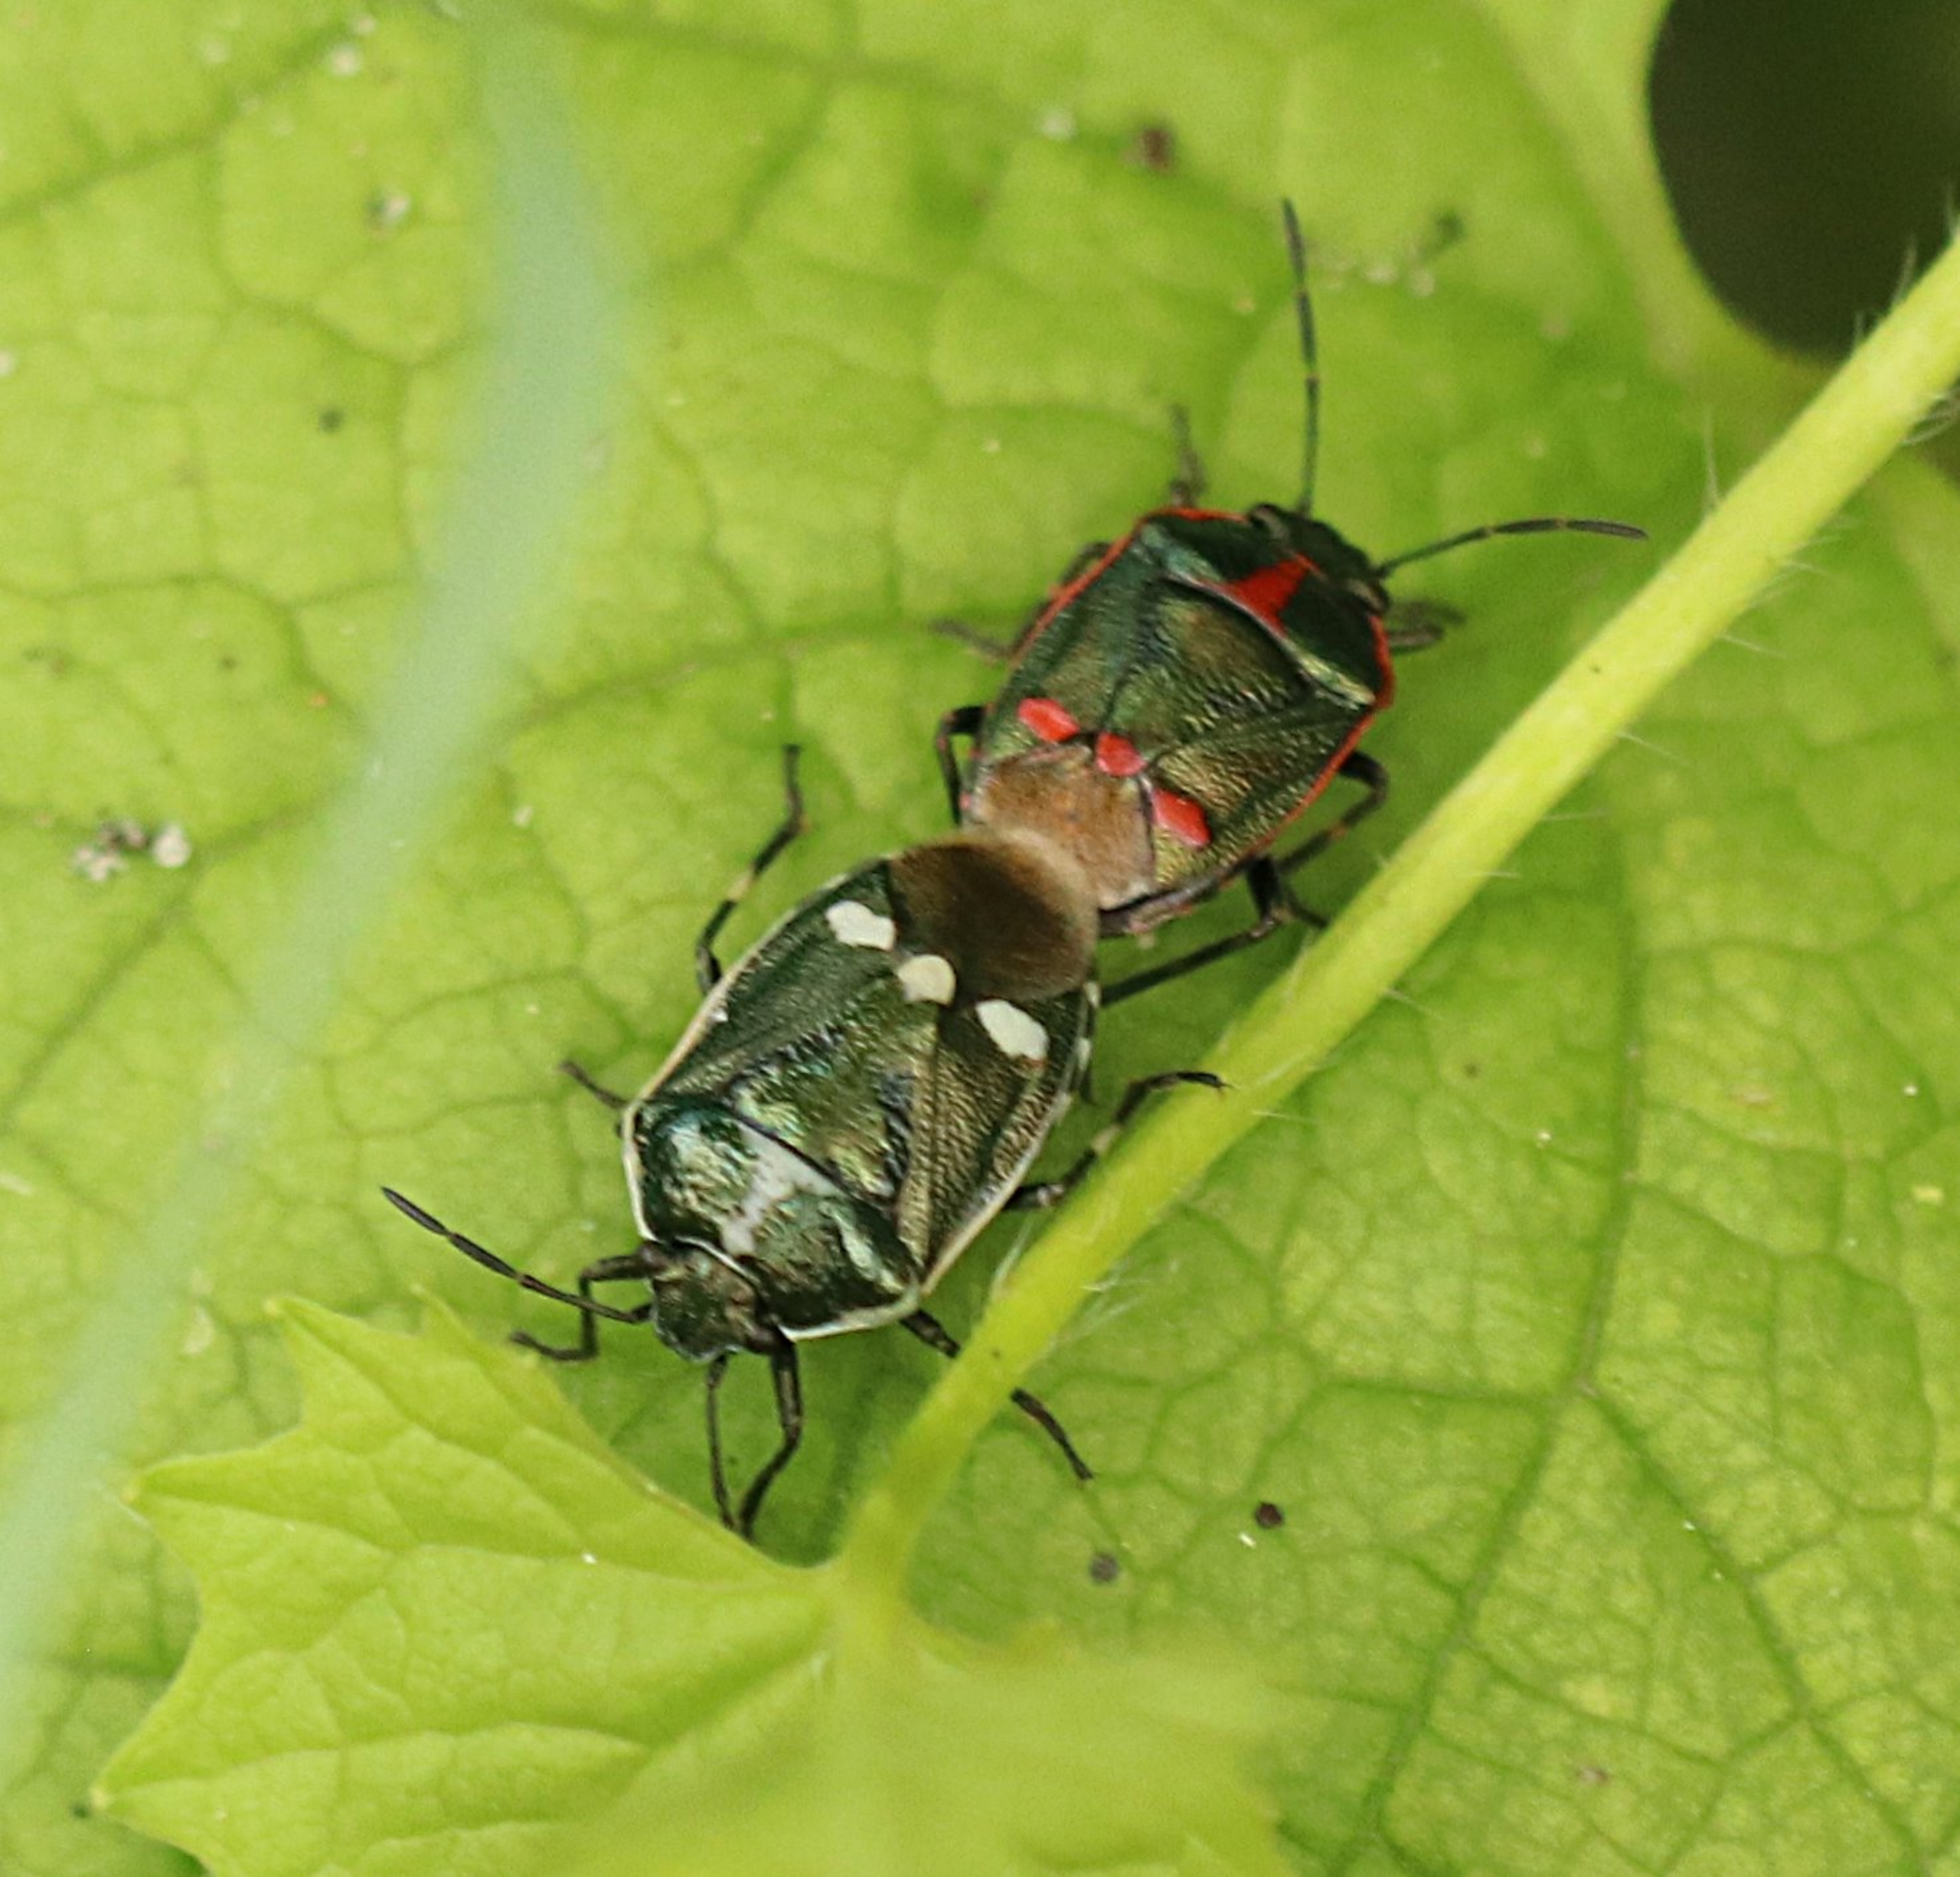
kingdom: Animalia
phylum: Arthropoda
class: Insecta
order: Hemiptera
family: Pentatomidae
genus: Eurydema
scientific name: Eurydema oleracea
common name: Almindelig kåltæge
